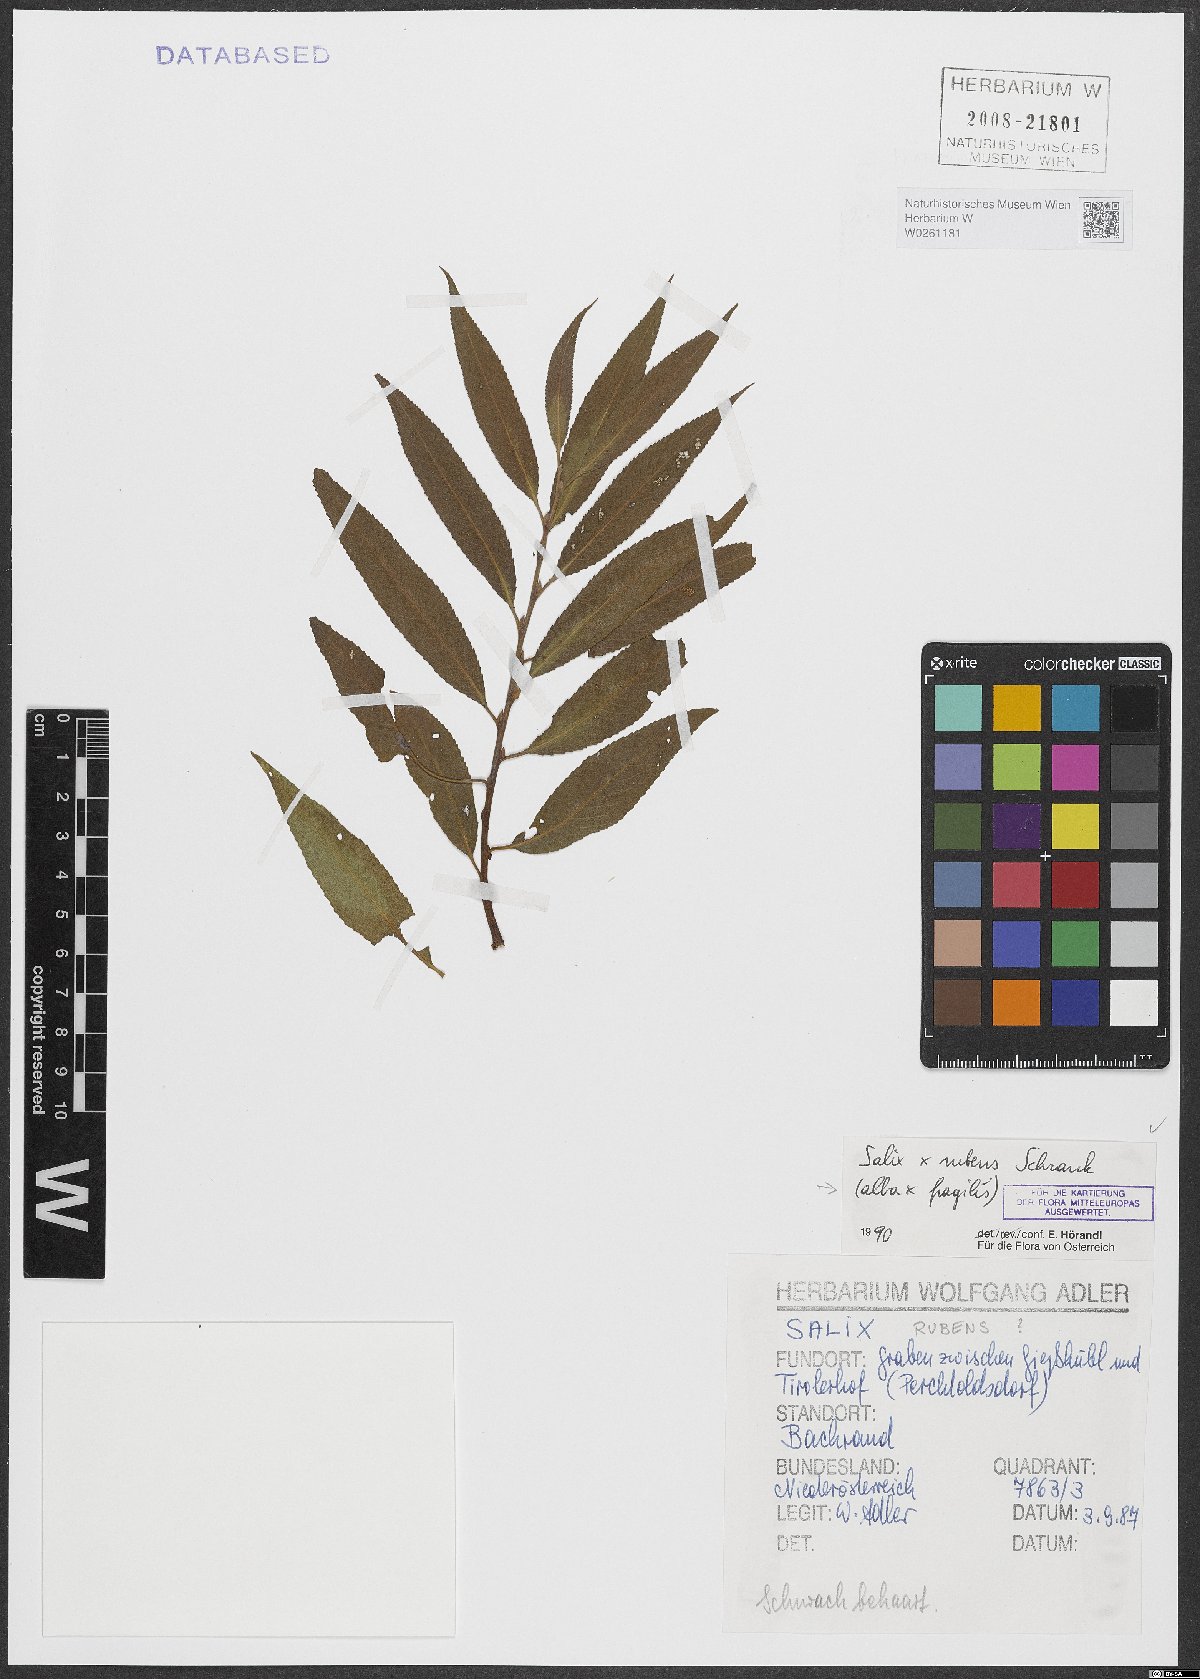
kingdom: Plantae
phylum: Tracheophyta
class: Magnoliopsida
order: Malpighiales
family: Salicaceae
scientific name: Salicaceae
